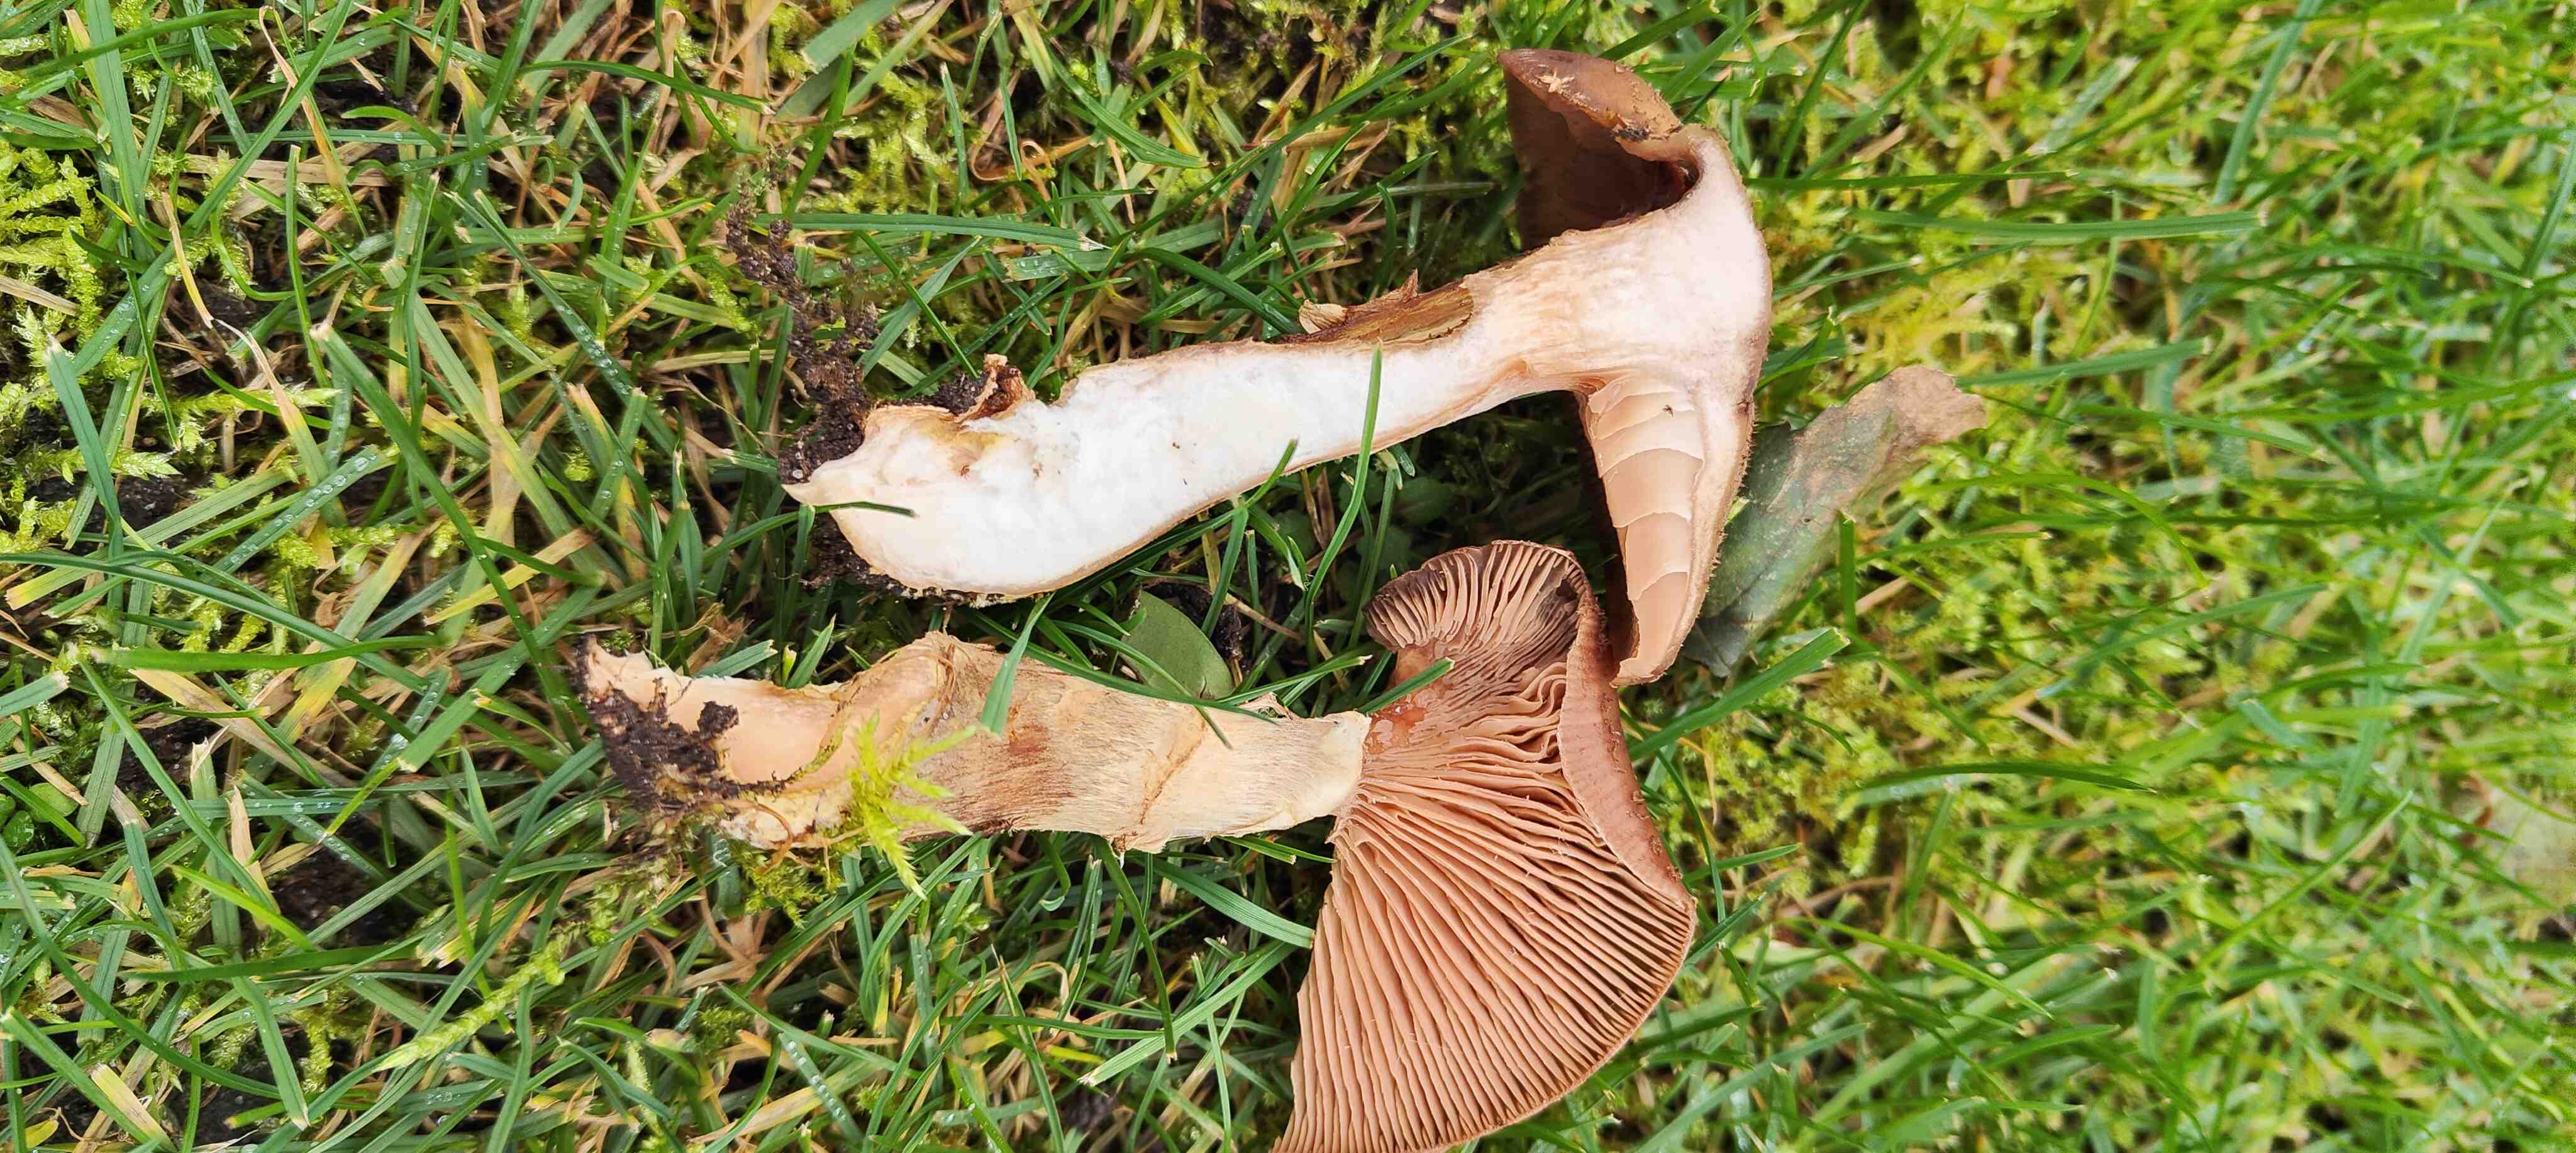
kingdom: Fungi
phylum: Basidiomycota
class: Agaricomycetes
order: Agaricales
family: Physalacriaceae
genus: Armillaria
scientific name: Armillaria lutea
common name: køllestokket honningsvamp
